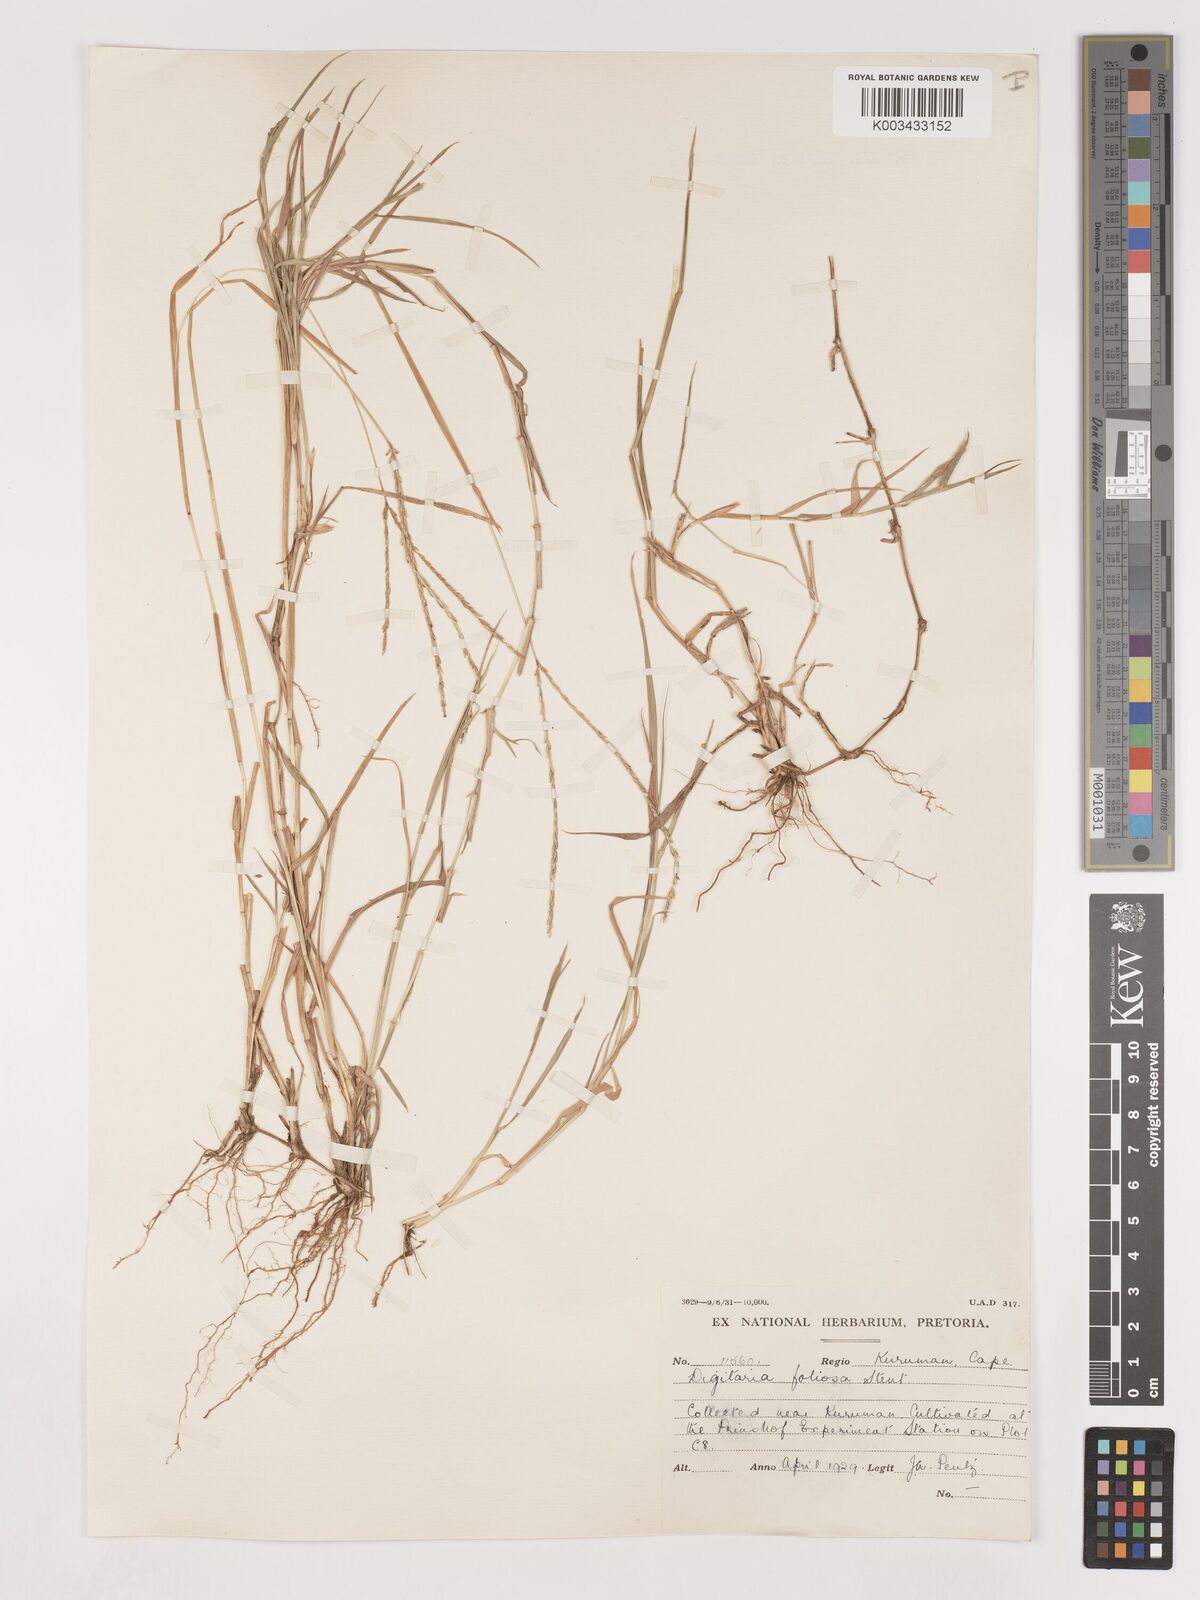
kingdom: Plantae
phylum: Tracheophyta
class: Liliopsida
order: Poales
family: Poaceae
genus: Digitaria
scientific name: Digitaria polyphylla
